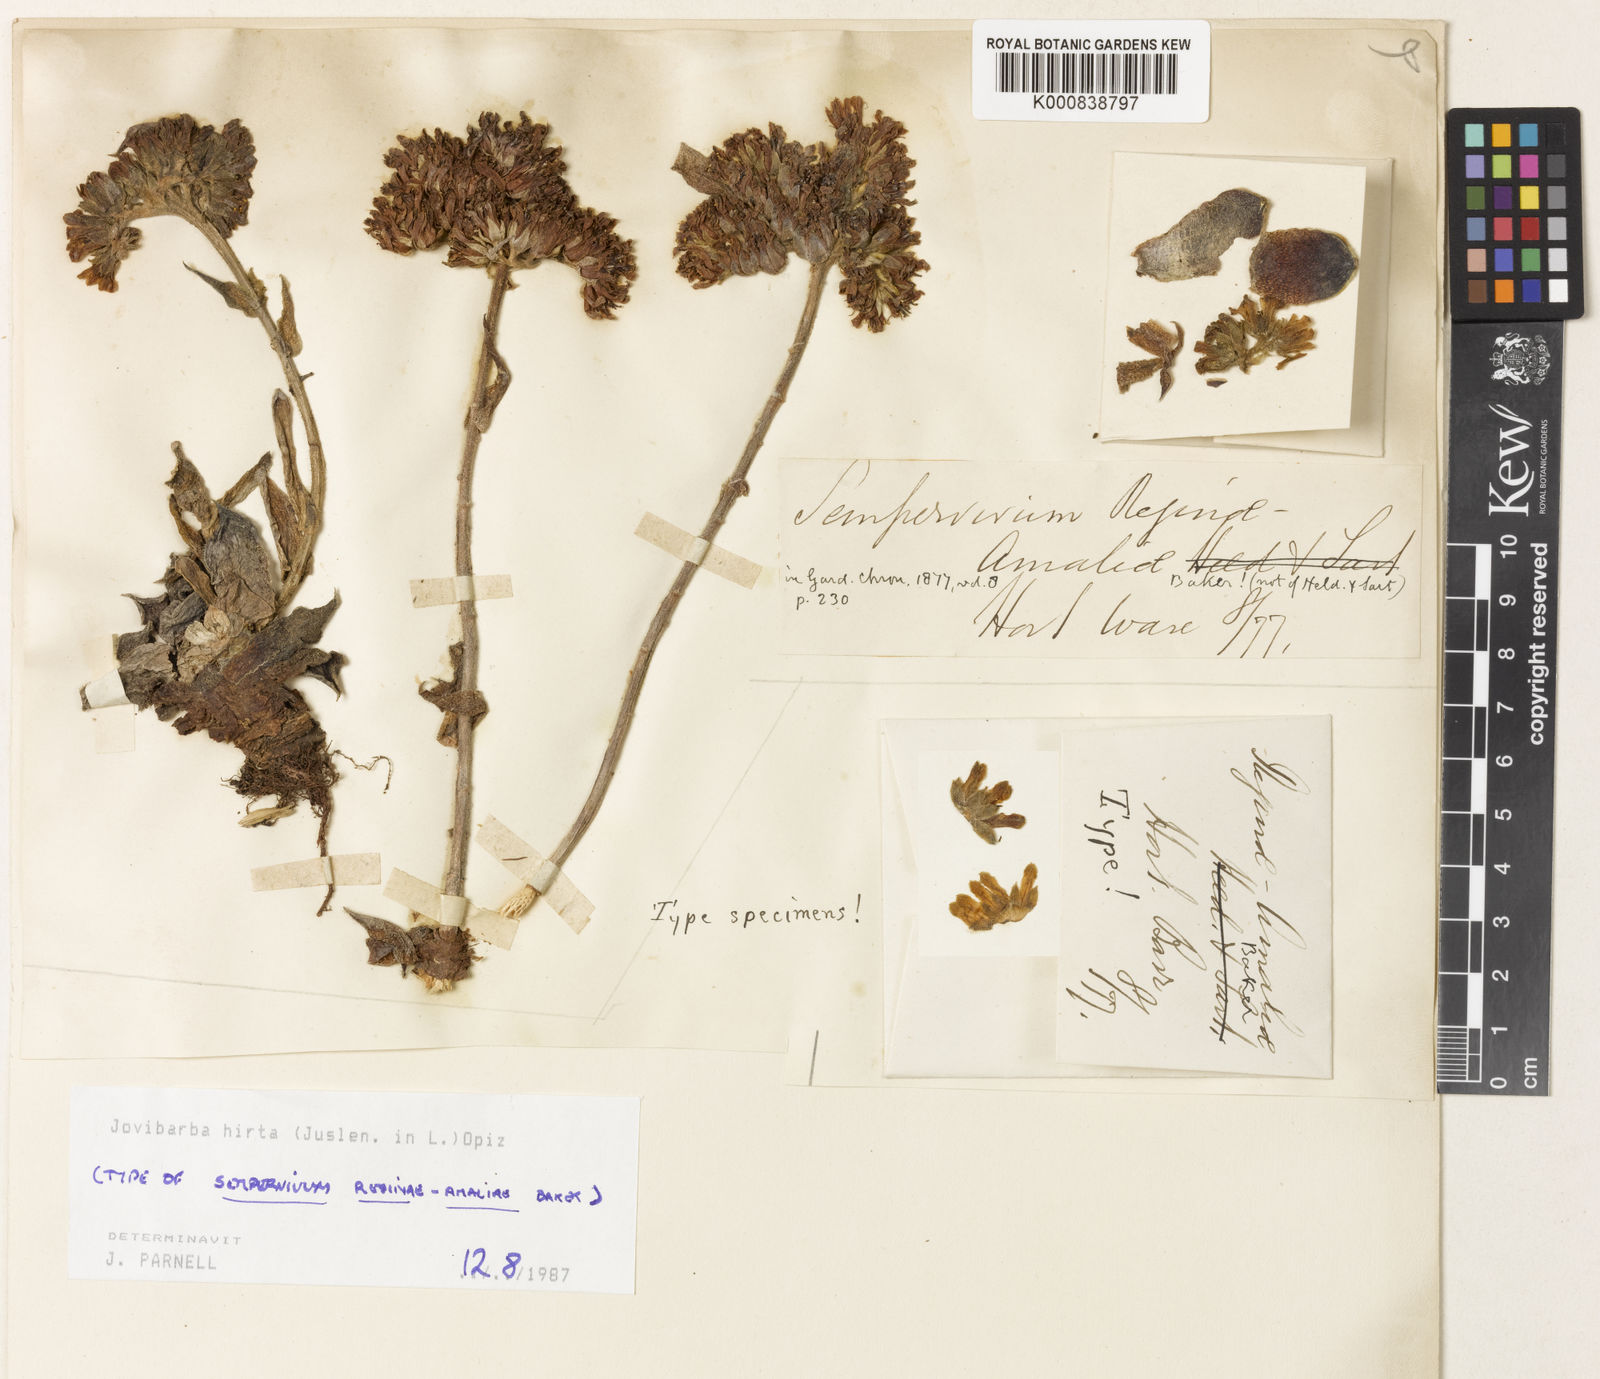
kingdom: Plantae
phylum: Tracheophyta
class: Magnoliopsida
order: Saxifragales
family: Crassulaceae
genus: Sempervivum
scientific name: Sempervivum heuffelii
